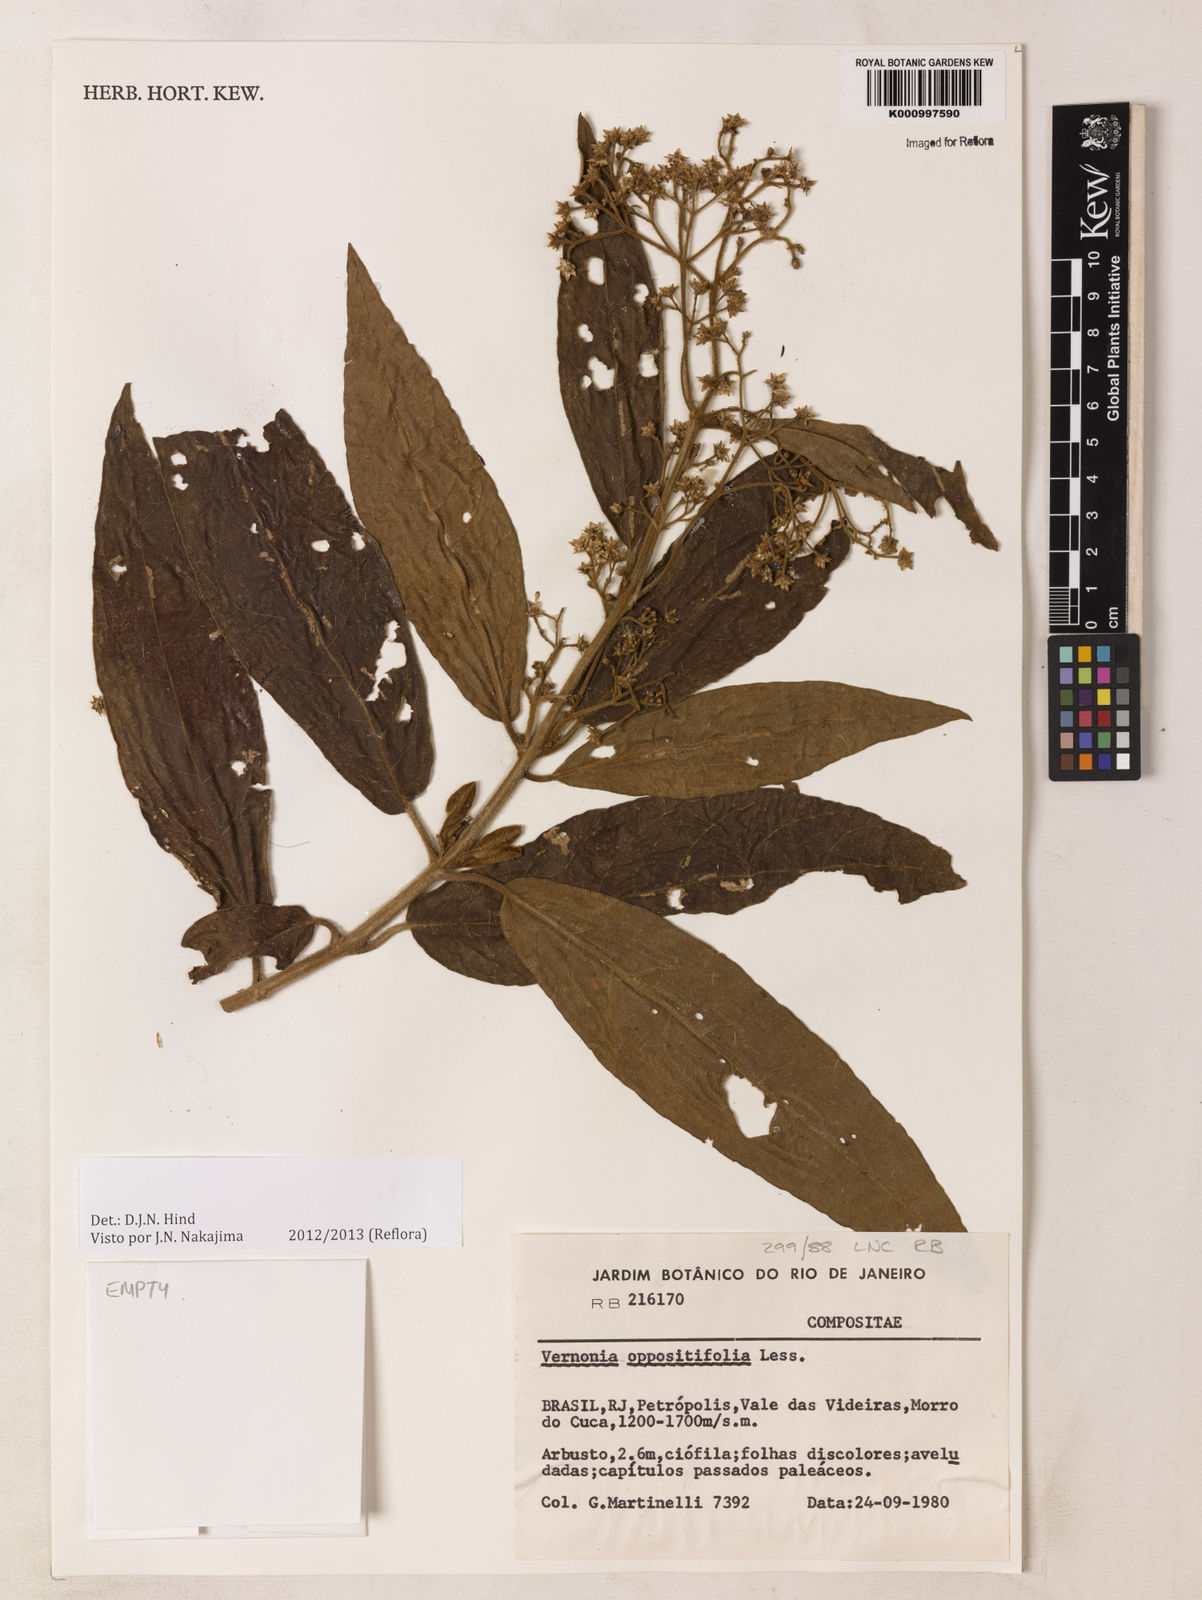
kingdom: Plantae
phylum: Tracheophyta
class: Magnoliopsida
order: Asterales
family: Asteraceae
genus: Critoniopsis
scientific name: Critoniopsis stellata
